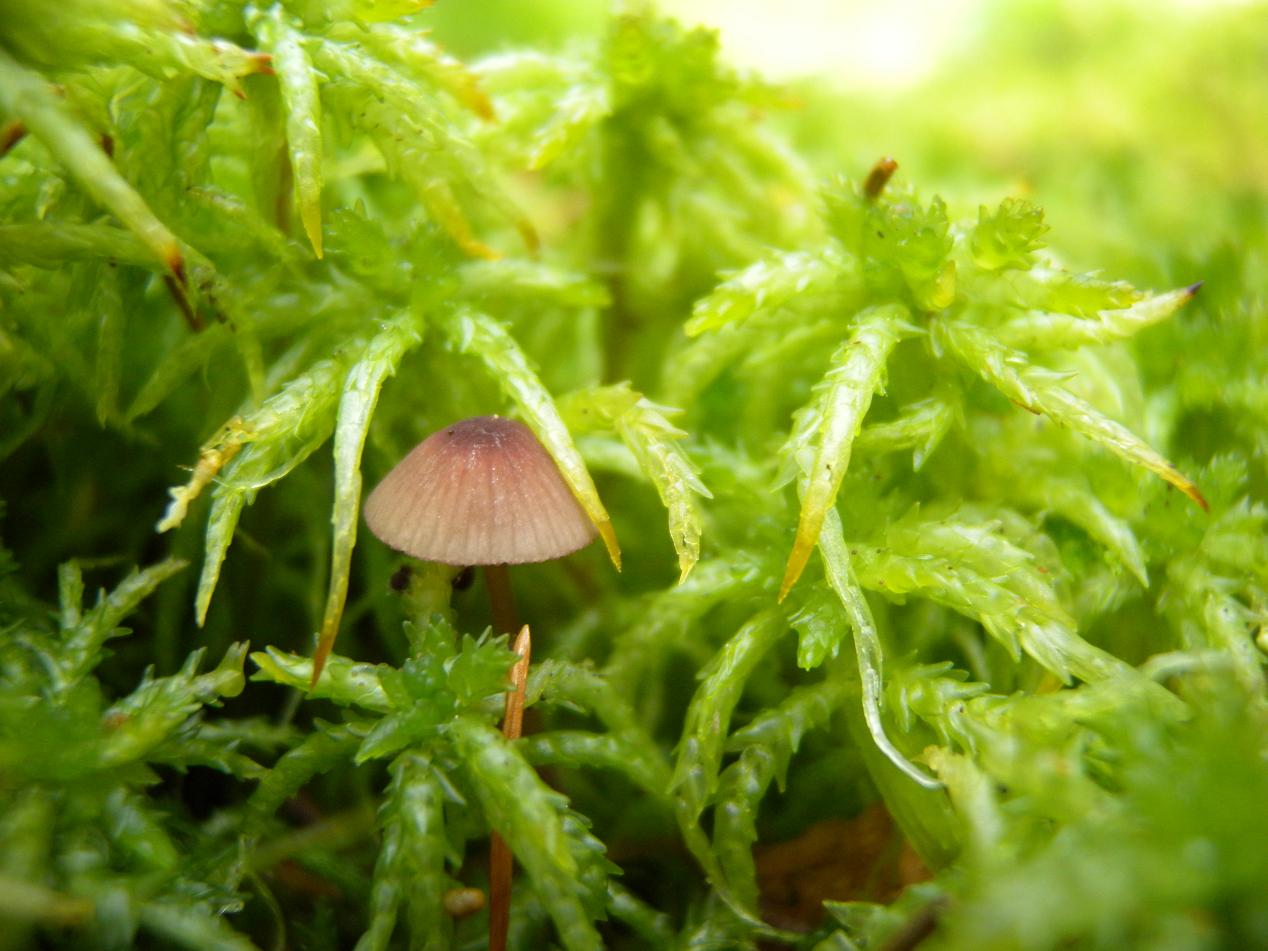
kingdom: Fungi
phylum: Basidiomycota
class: Agaricomycetes
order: Agaricales
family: Mycenaceae
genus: Mycena
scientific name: Mycena sanguinolenta
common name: rødmælket huesvamp
